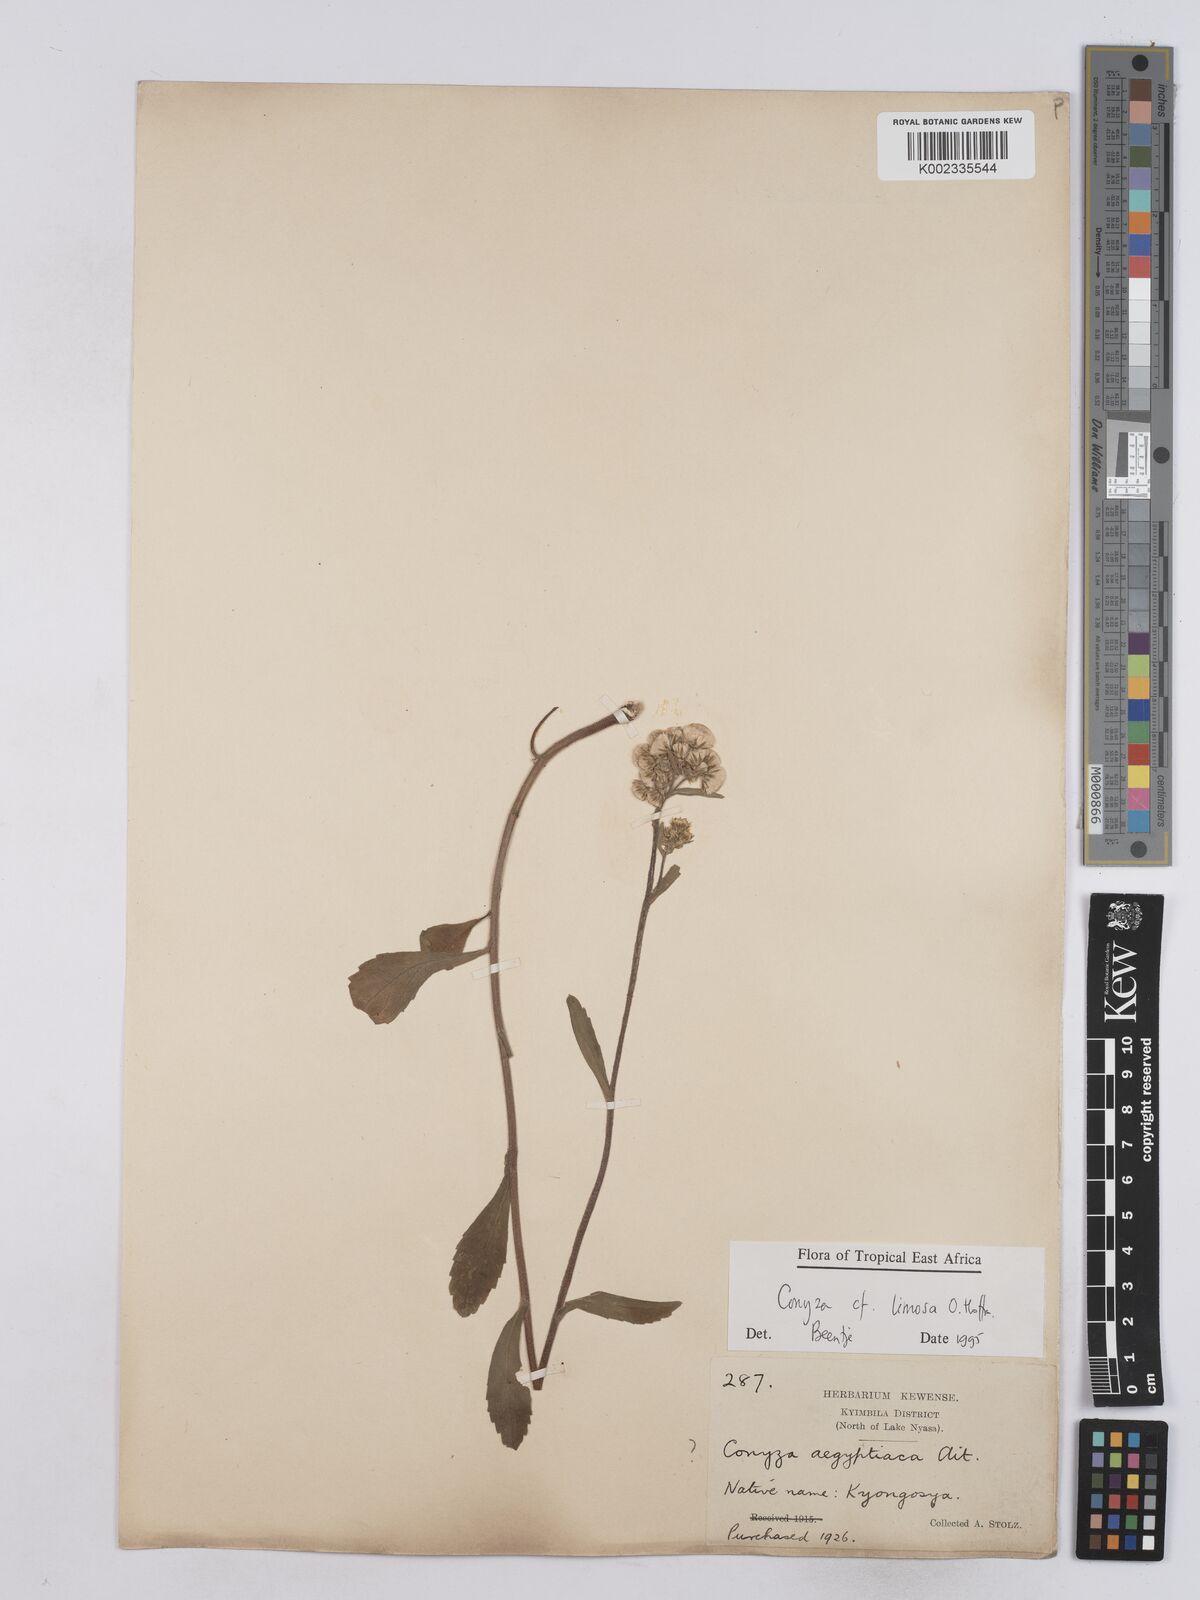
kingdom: Plantae
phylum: Tracheophyta
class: Magnoliopsida
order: Asterales
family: Asteraceae
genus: Conyza
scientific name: Conyza limosa
